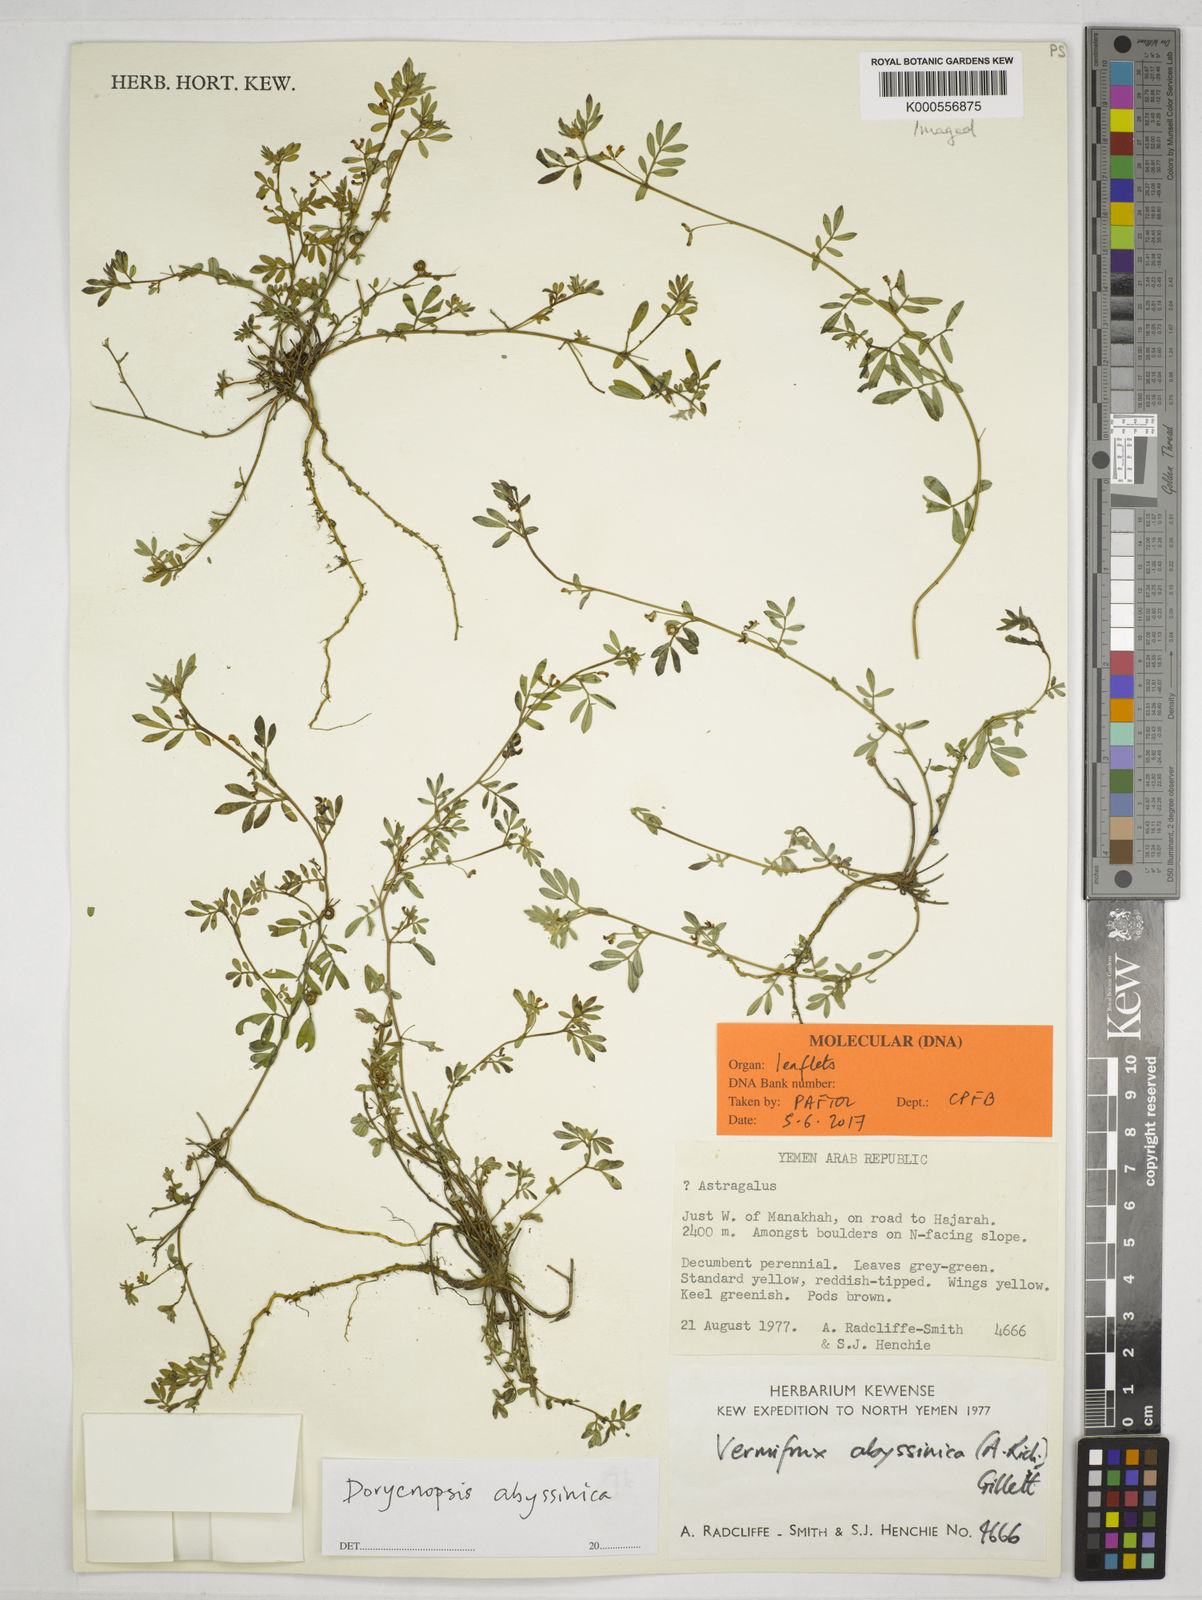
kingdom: Plantae
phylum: Tracheophyta
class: Magnoliopsida
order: Fabales
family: Fabaceae
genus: Dorycnopsis
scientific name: Dorycnopsis abyssinica
